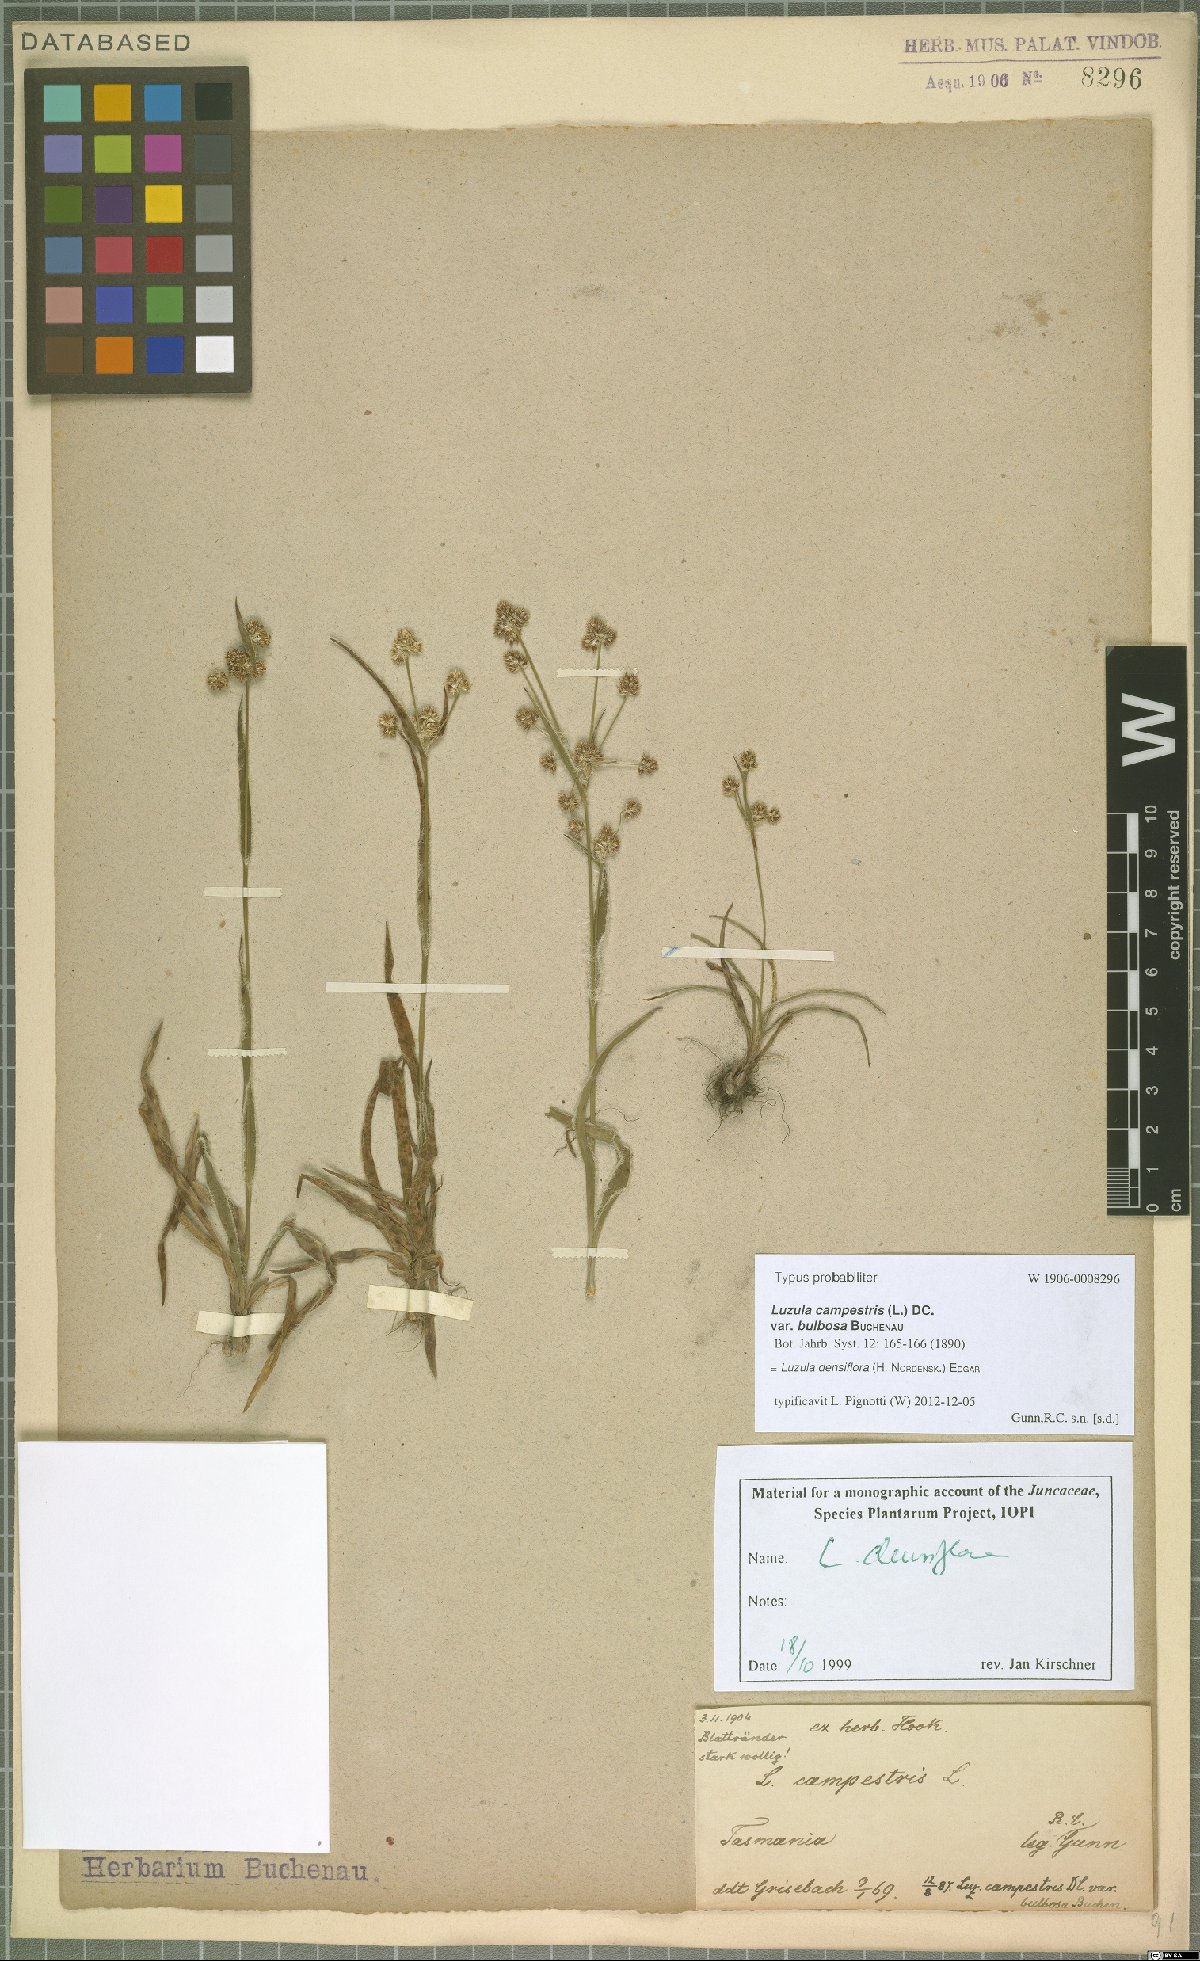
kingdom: Plantae
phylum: Tracheophyta
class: Liliopsida
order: Poales
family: Juncaceae
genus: Luzula
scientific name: Luzula densiflora
